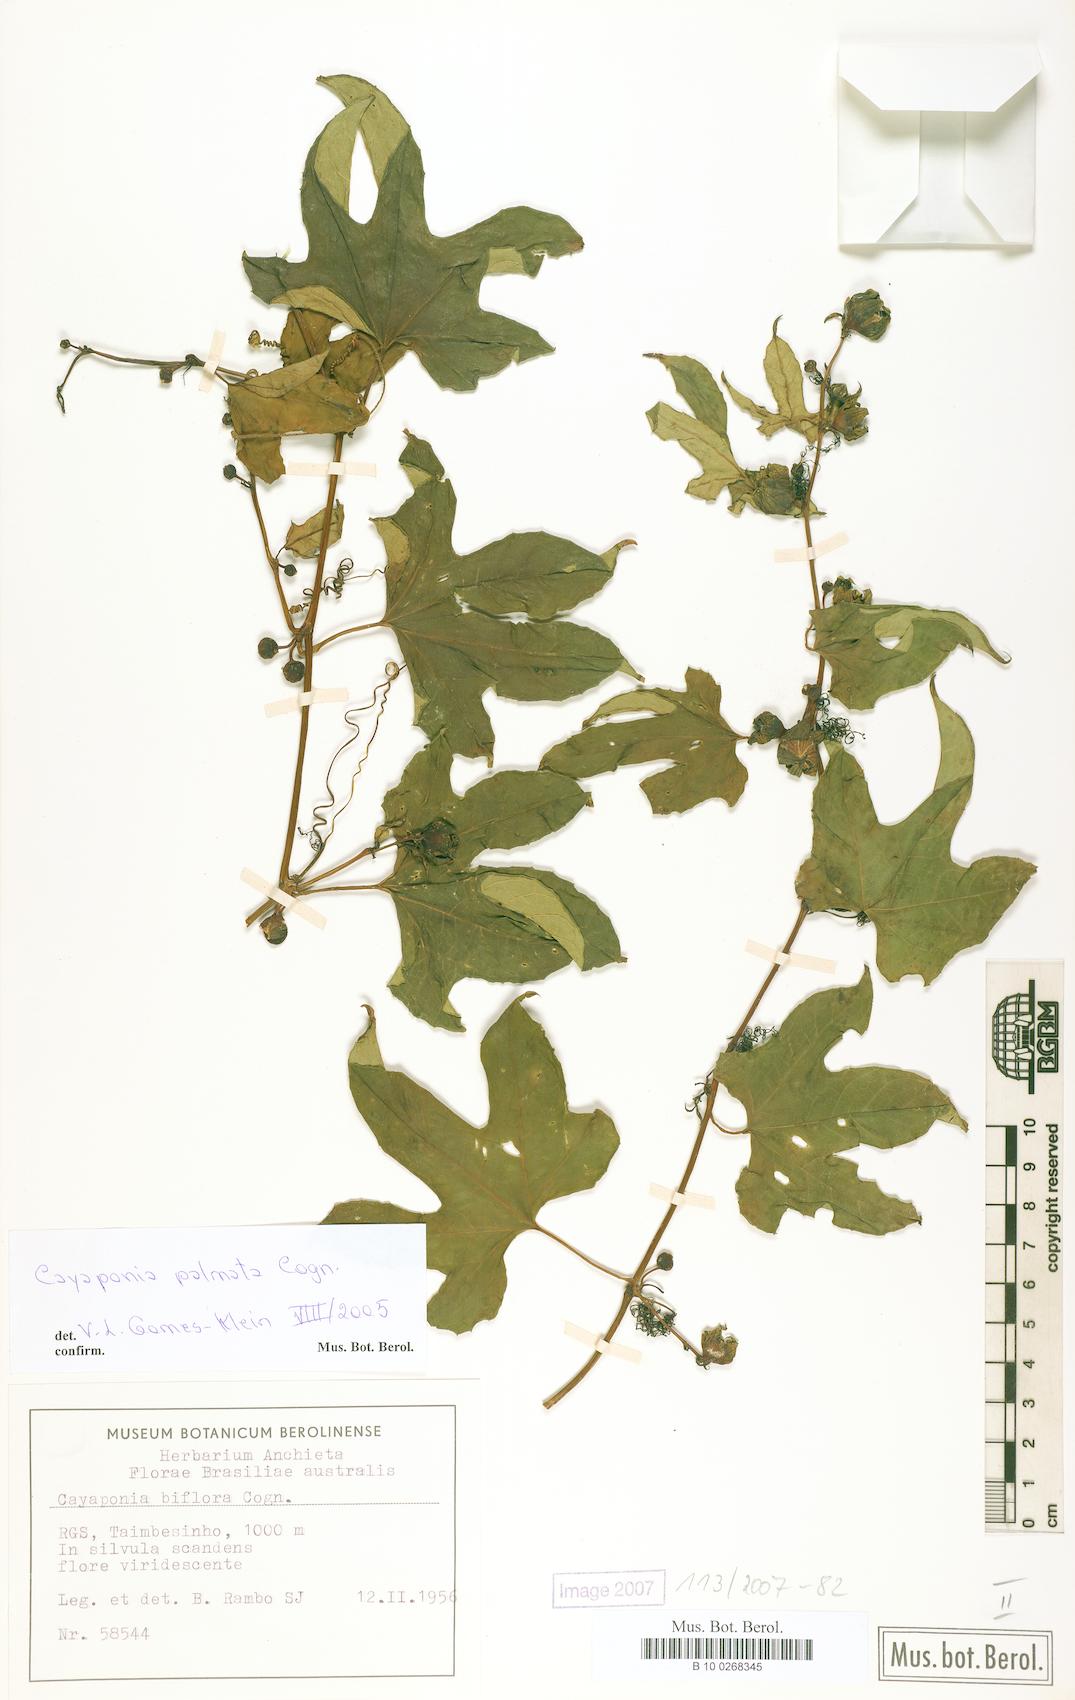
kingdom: Plantae
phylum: Tracheophyta
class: Magnoliopsida
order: Cucurbitales
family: Cucurbitaceae
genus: Cayaponia
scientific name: Cayaponia palmata
